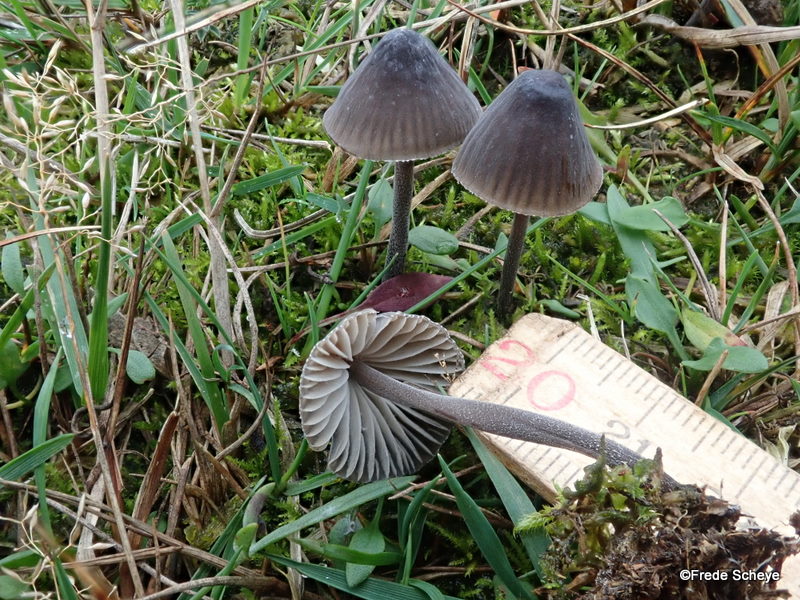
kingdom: Fungi
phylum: Basidiomycota
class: Agaricomycetes
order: Agaricales
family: Mycenaceae
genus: Mycena
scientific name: Mycena galopus
